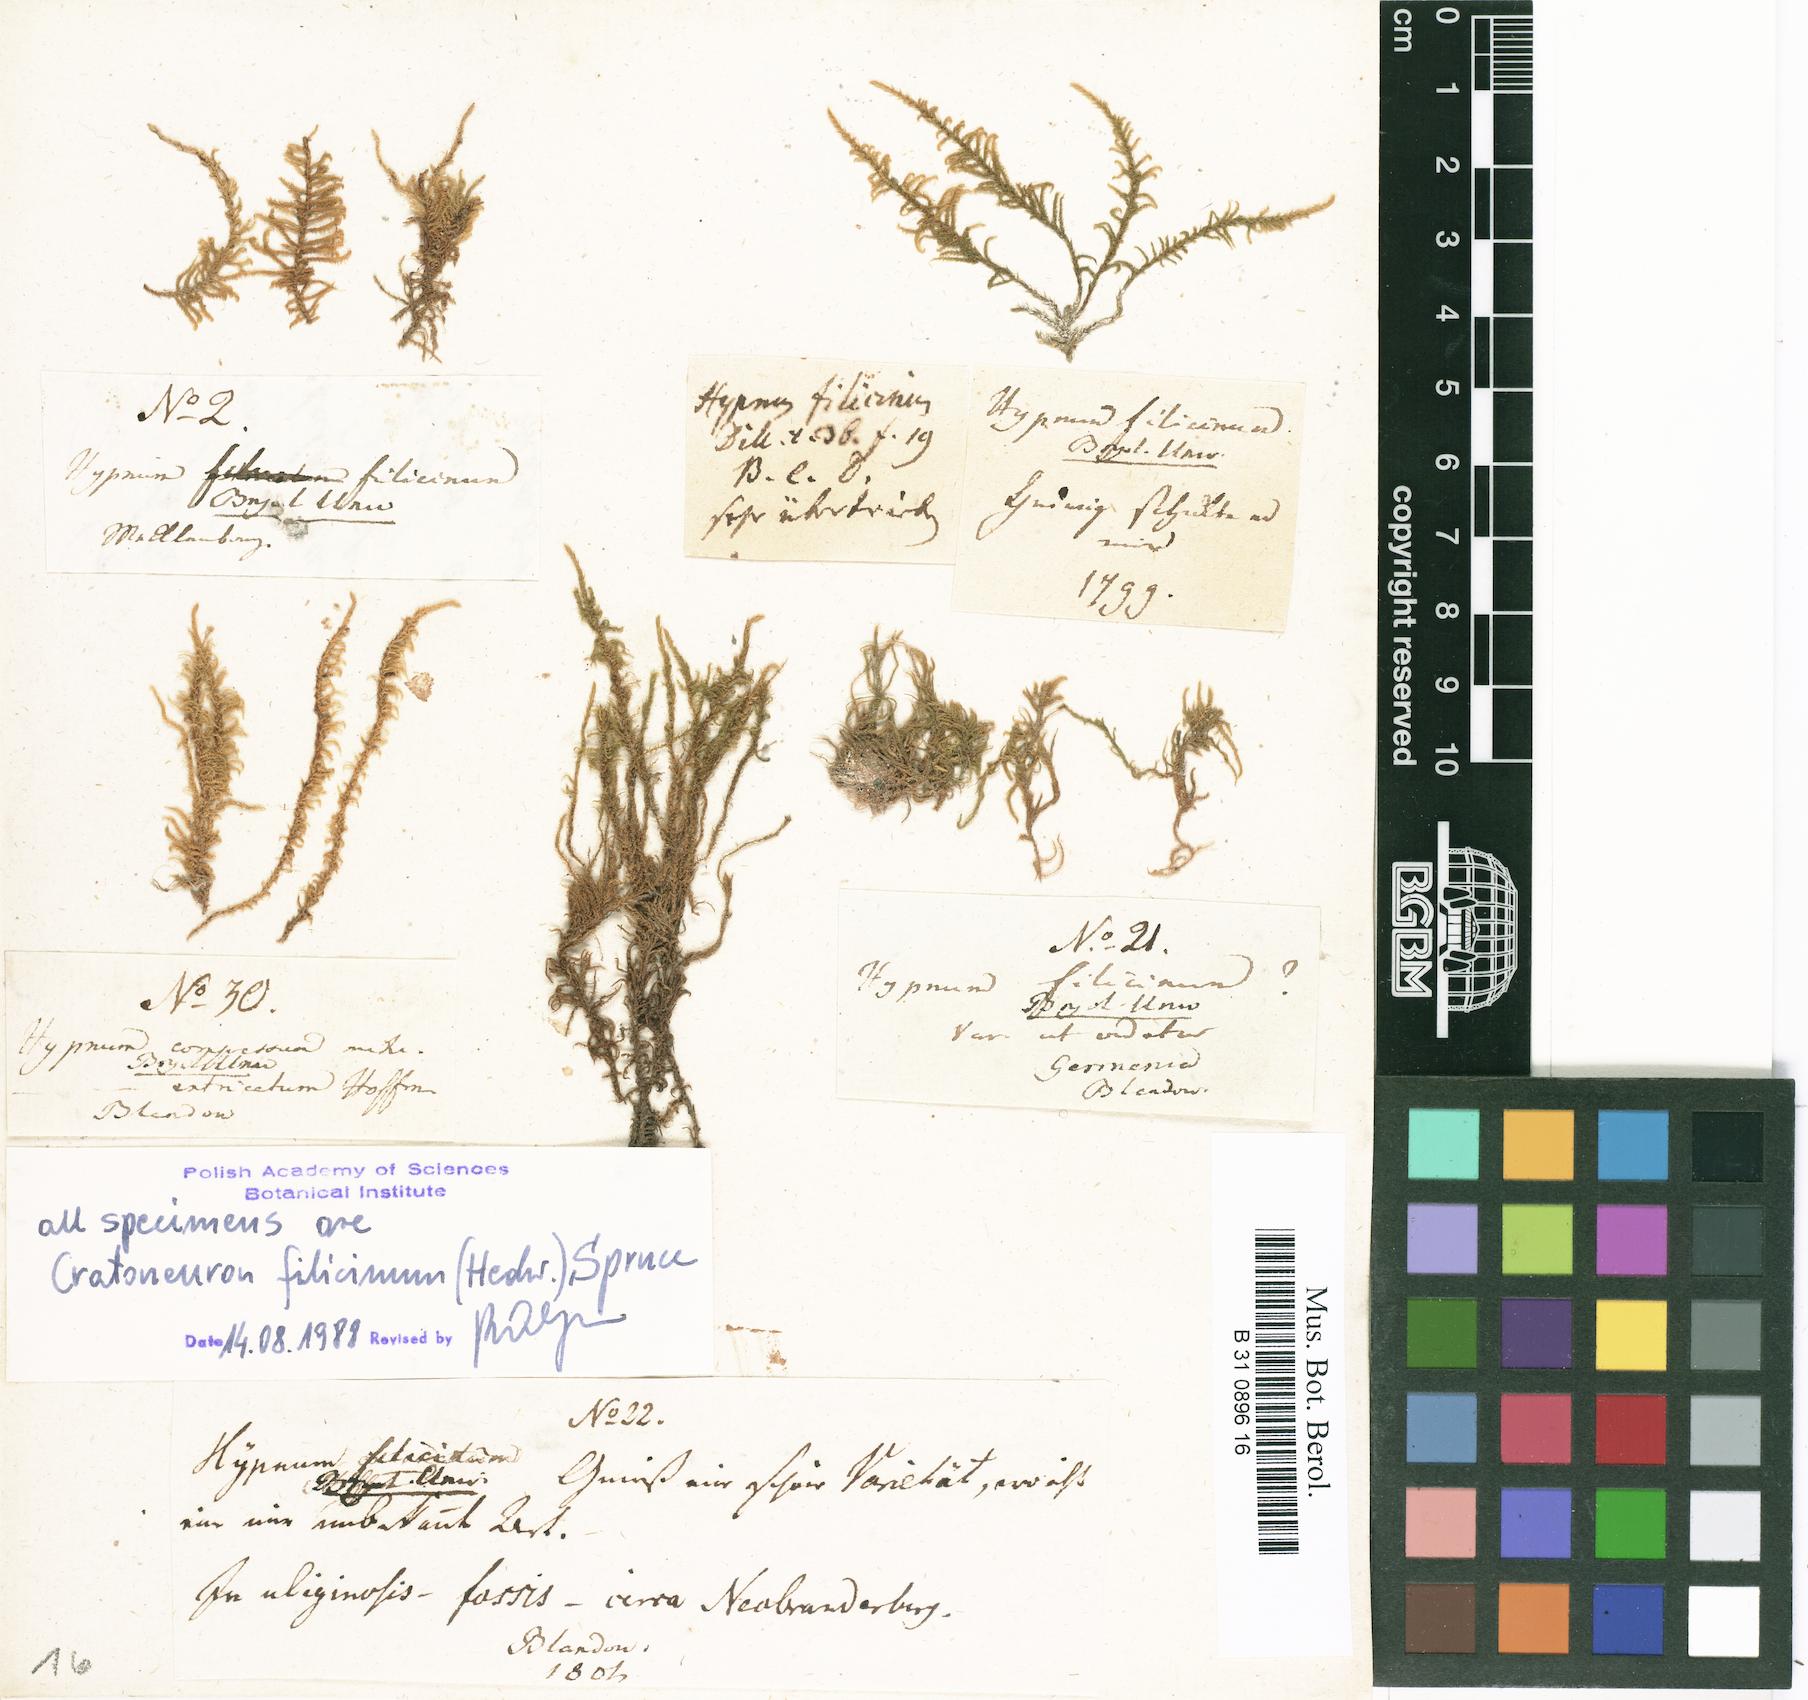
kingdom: Plantae
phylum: Bryophyta
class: Bryopsida
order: Hypnales
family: Amblystegiaceae
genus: Cratoneuron
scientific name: Cratoneuron filicinum
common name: Fern-leaved hook moss
